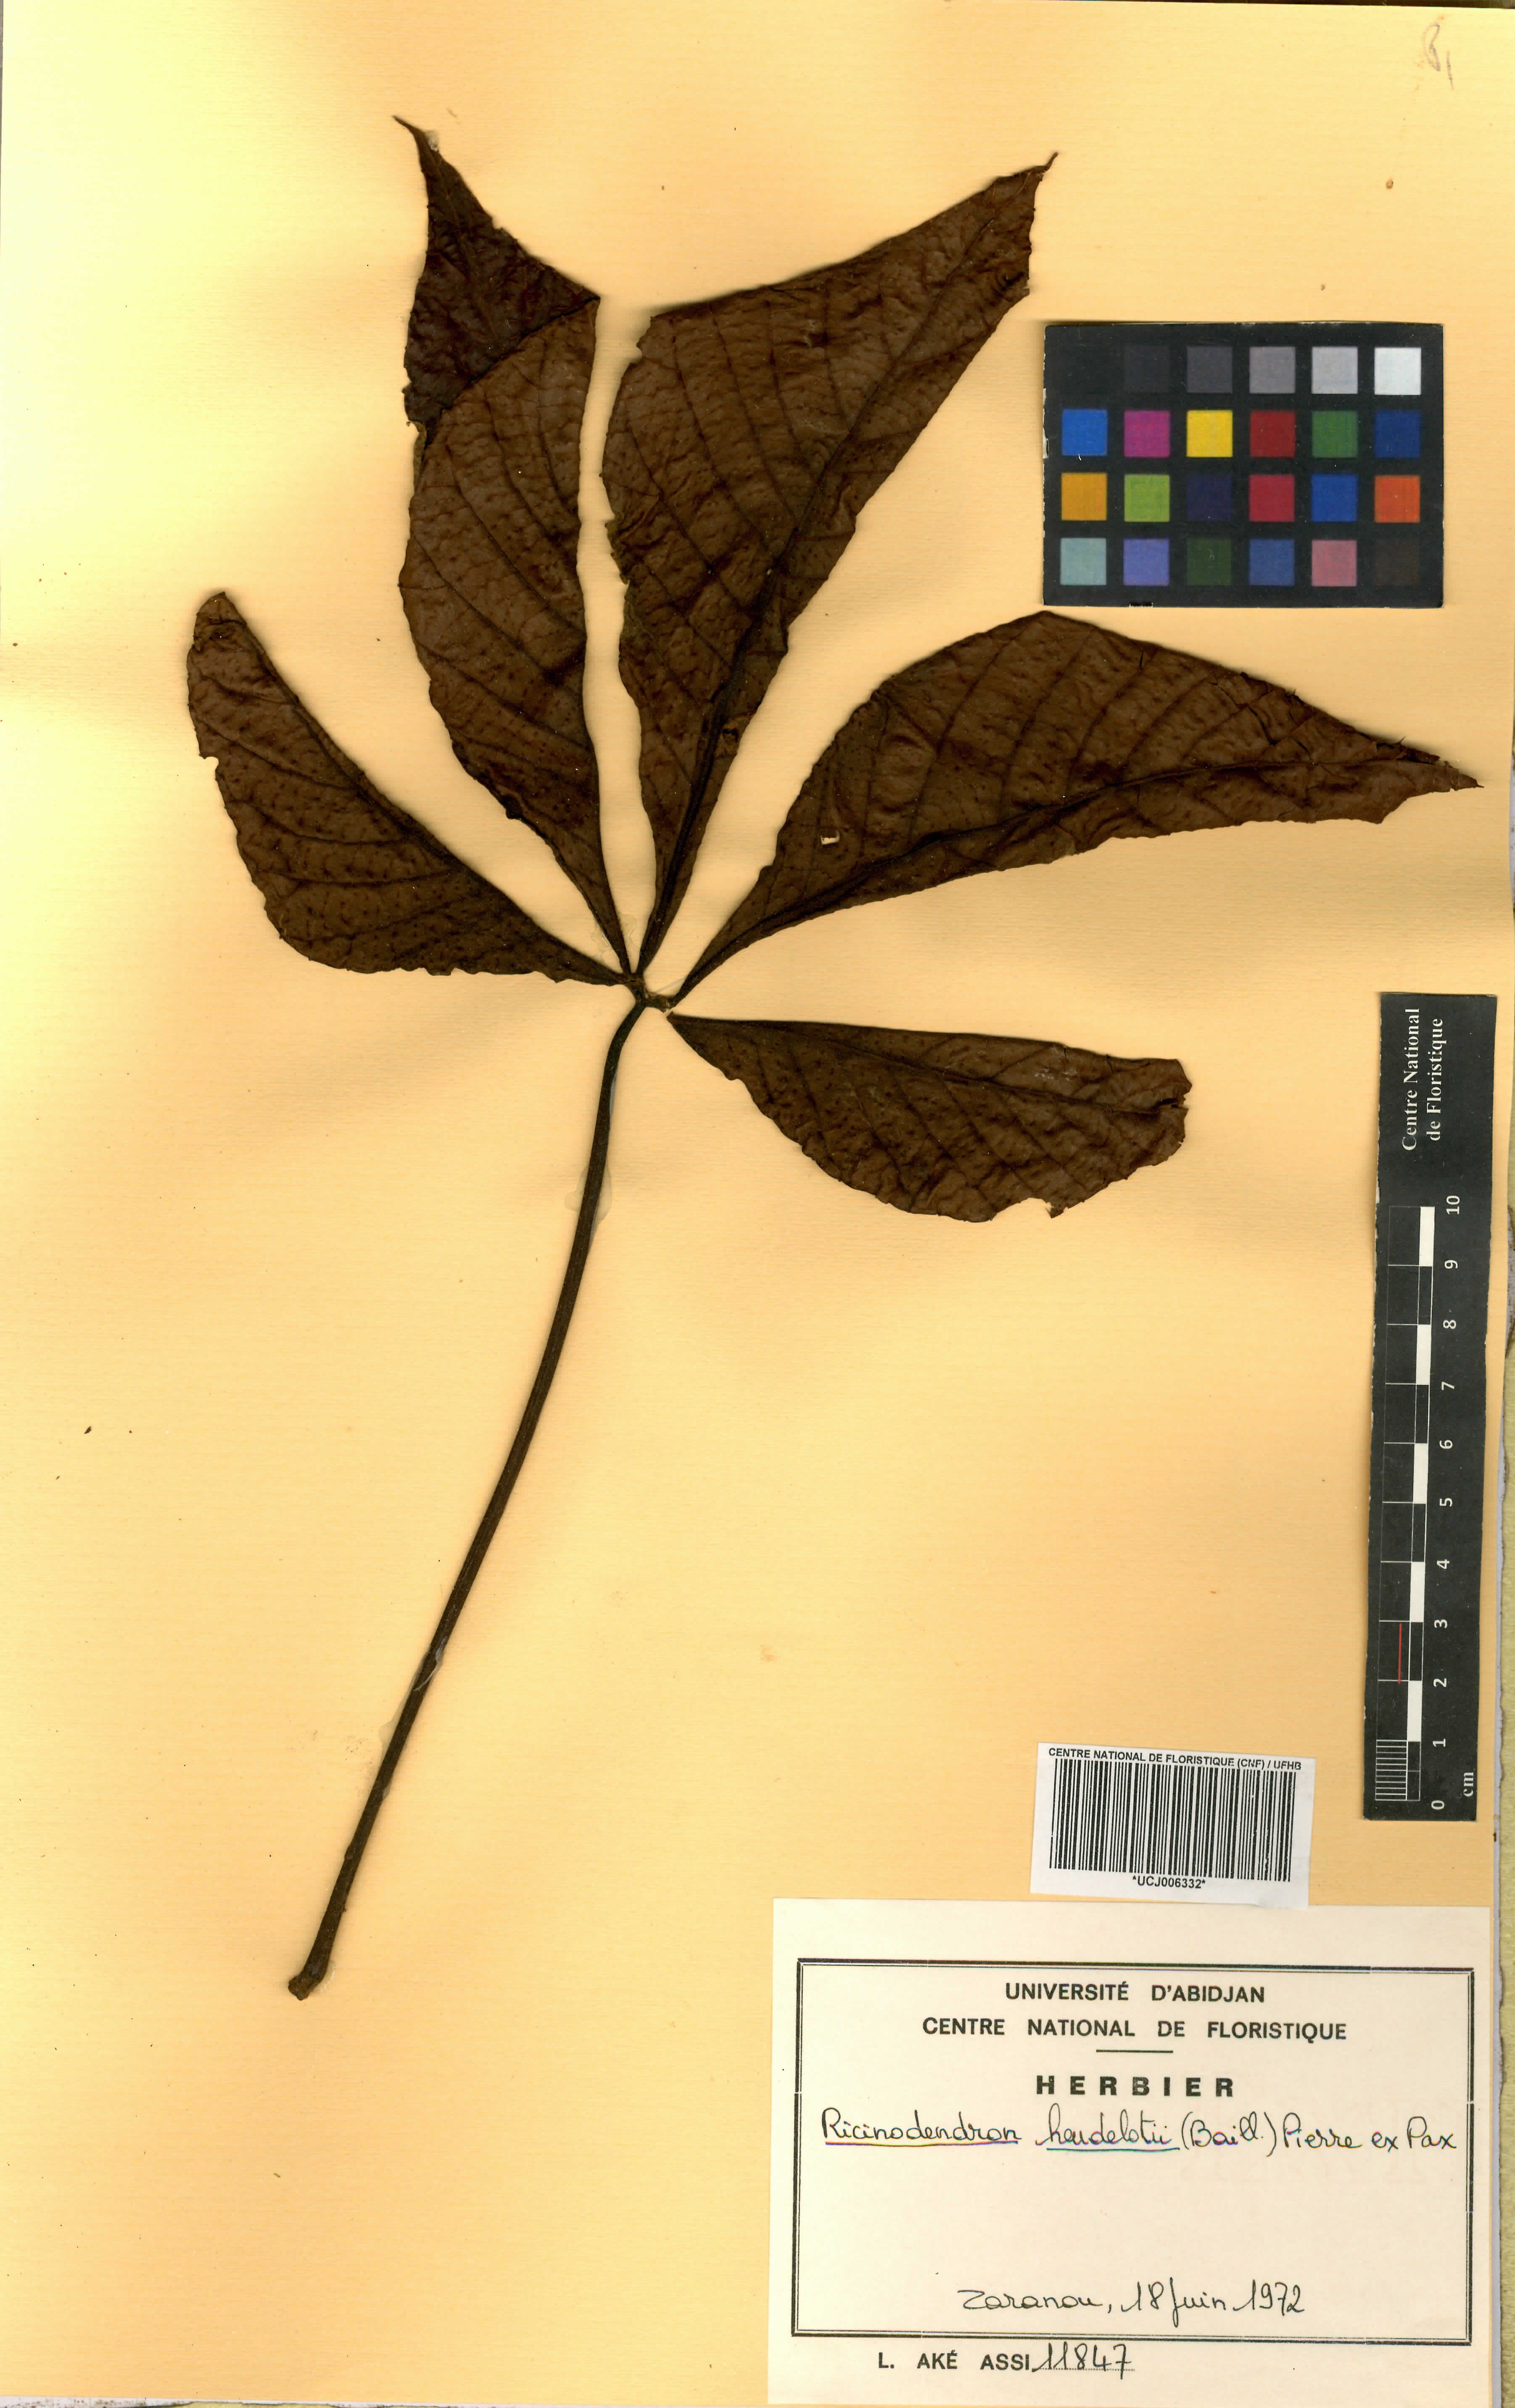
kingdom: Plantae
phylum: Tracheophyta
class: Magnoliopsida
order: Malpighiales
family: Euphorbiaceae
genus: Ricinodendron
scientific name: Ricinodendron heudelotii
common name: African nut-tree
